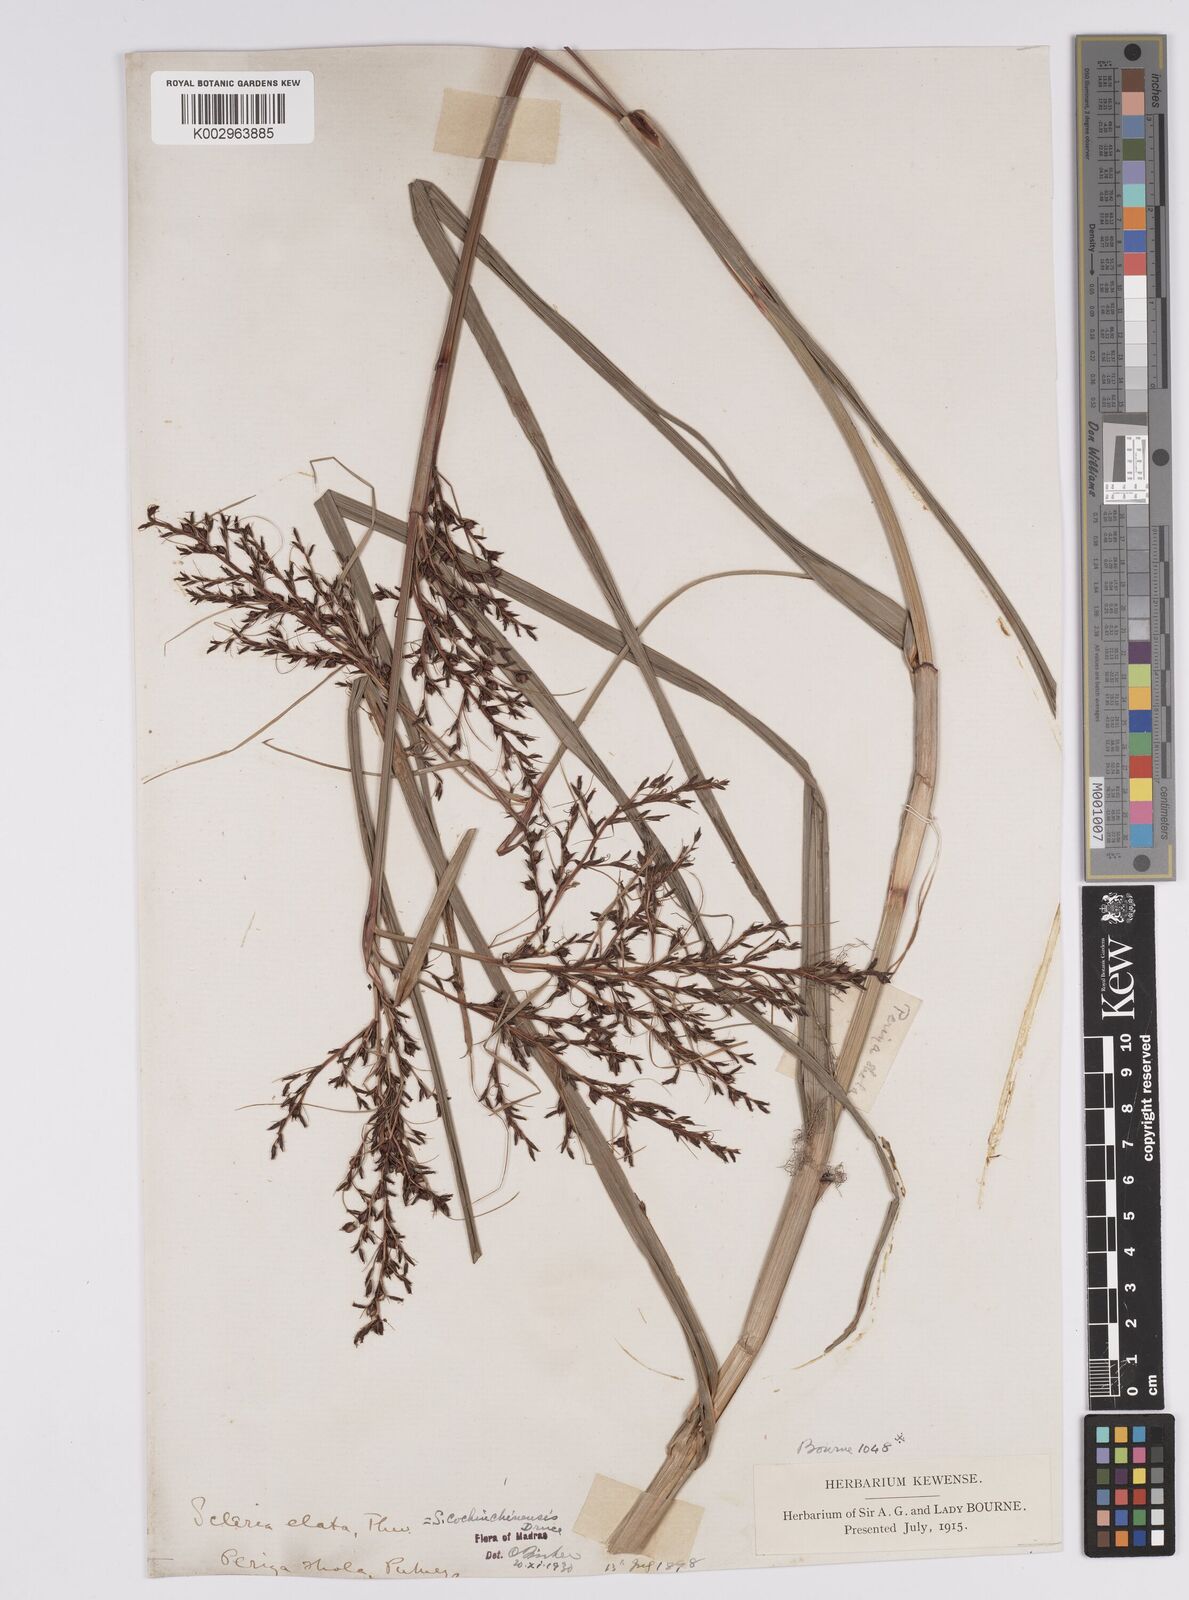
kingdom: Plantae
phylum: Tracheophyta
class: Liliopsida
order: Poales
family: Cyperaceae
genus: Scleria
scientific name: Scleria terrestris
